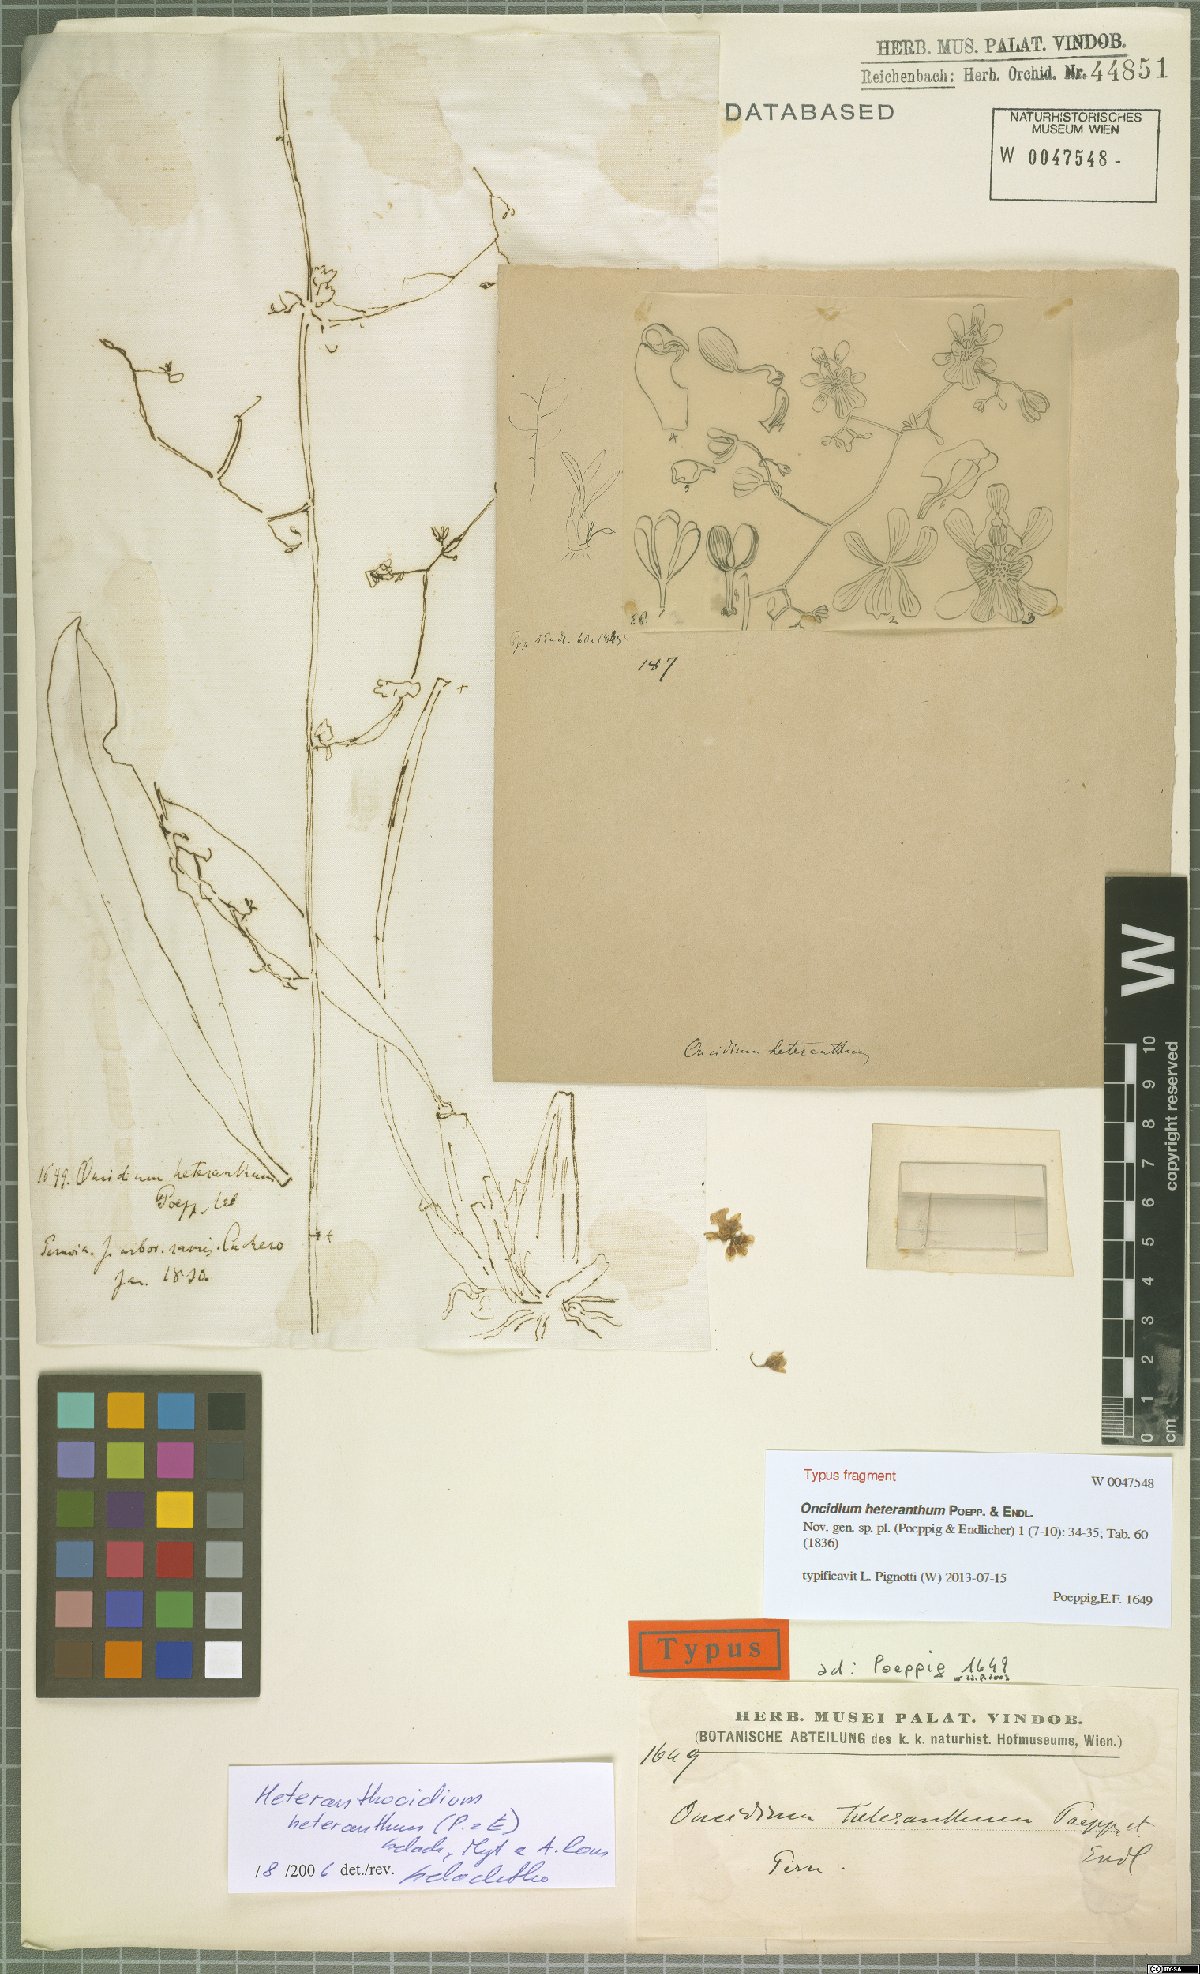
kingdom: Plantae
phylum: Tracheophyta
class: Liliopsida
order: Asparagales
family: Orchidaceae
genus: Oncidium
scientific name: Oncidium heteranthum
